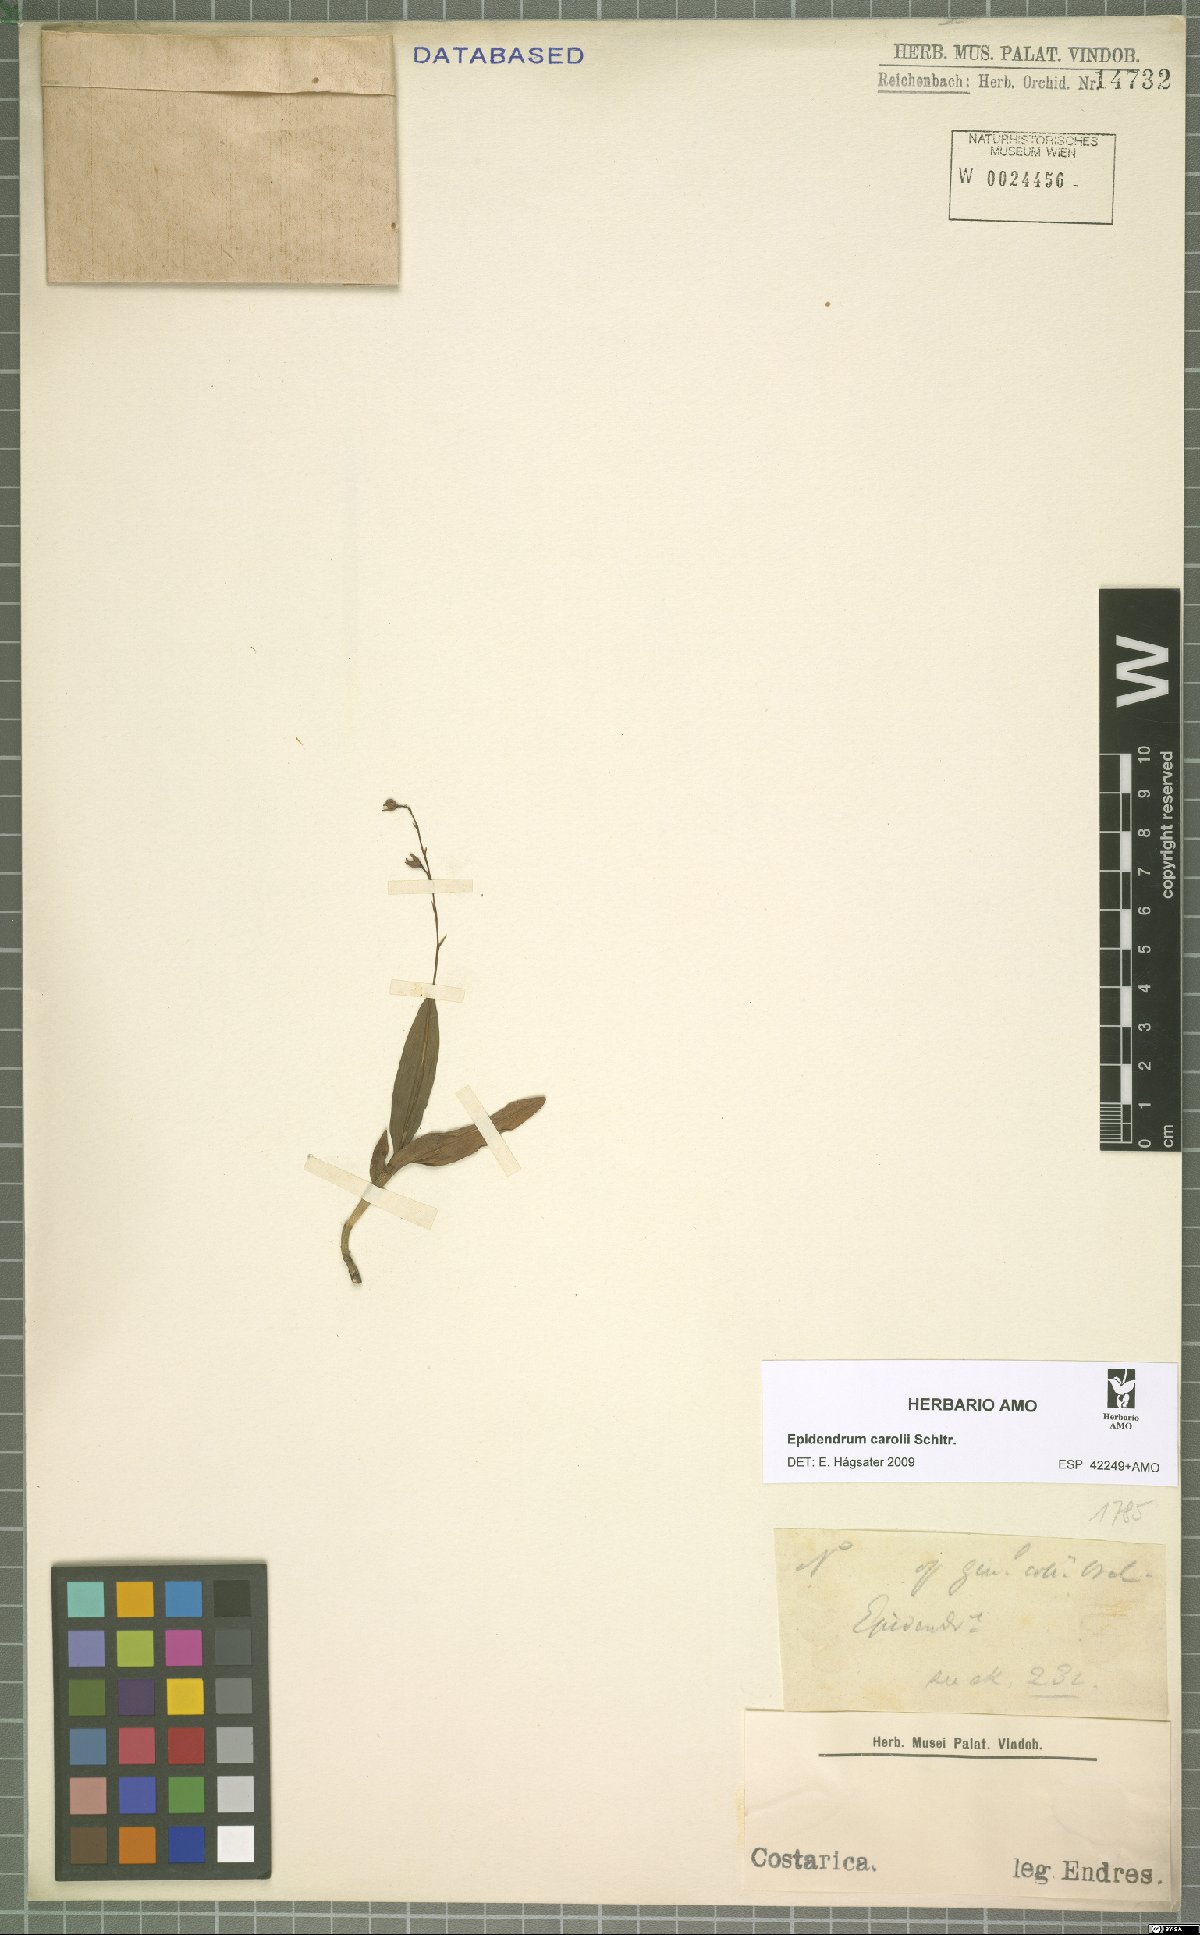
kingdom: Plantae
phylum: Tracheophyta
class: Liliopsida
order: Asparagales
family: Orchidaceae
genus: Epidendrum
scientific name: Epidendrum caroli
